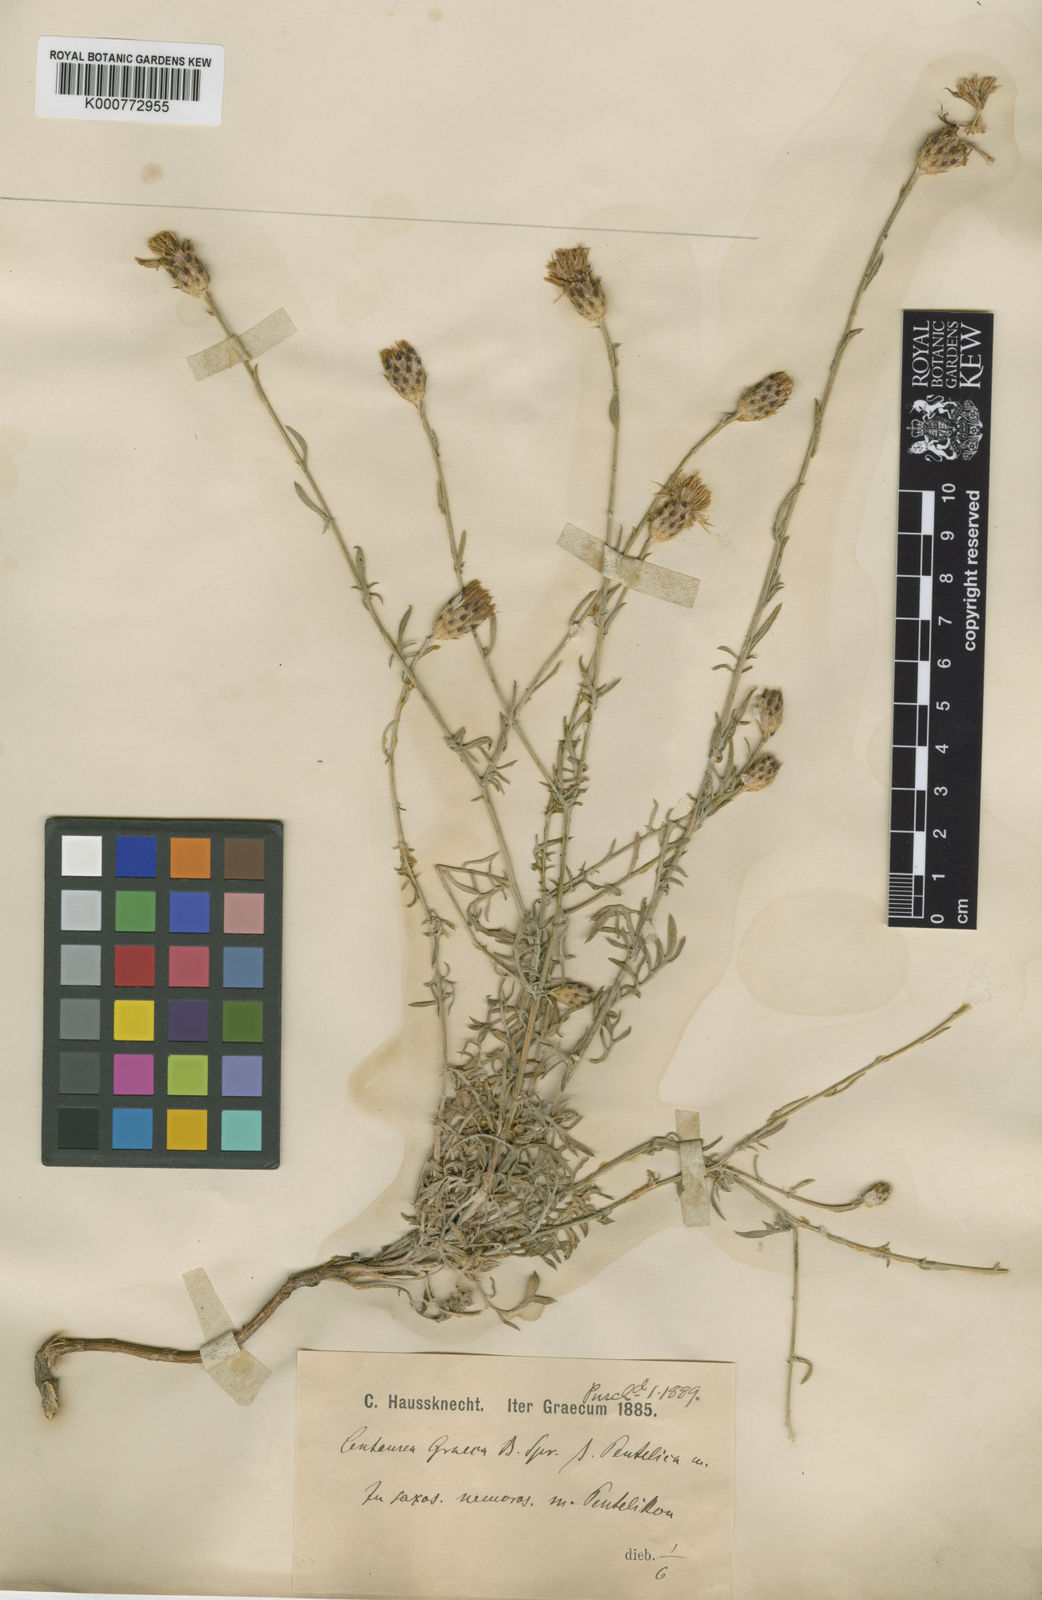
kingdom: Plantae
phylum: Tracheophyta
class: Magnoliopsida
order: Asterales
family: Asteraceae
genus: Centaurea
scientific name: Centaurea
